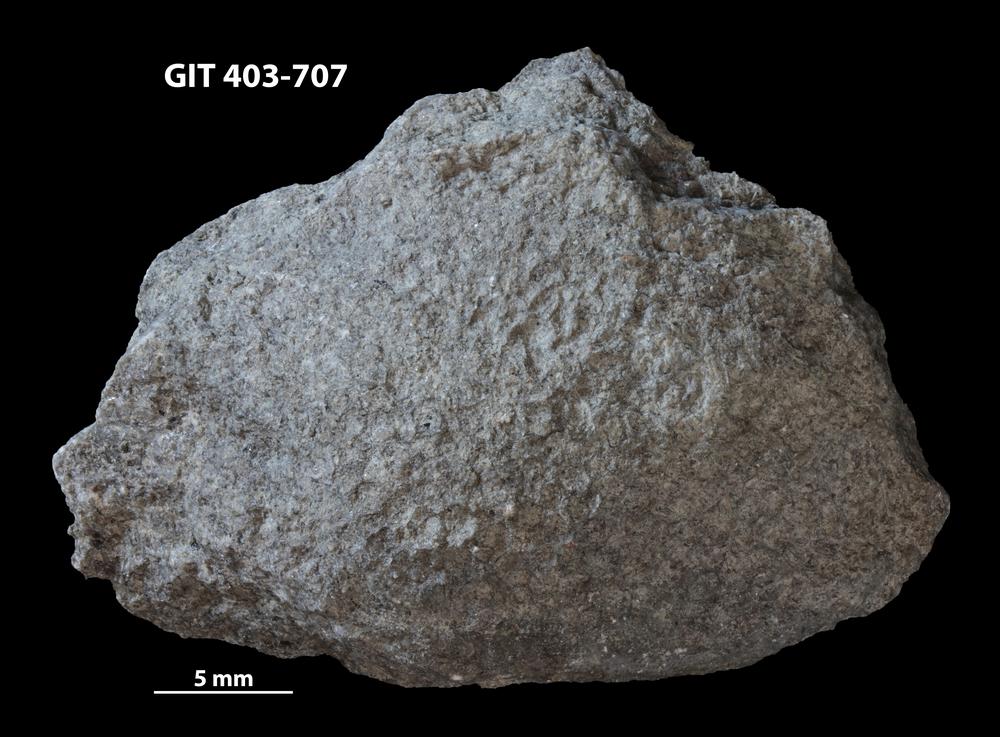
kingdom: Animalia
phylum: Cnidaria
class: Anthozoa
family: Favositidae
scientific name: Favositidae
